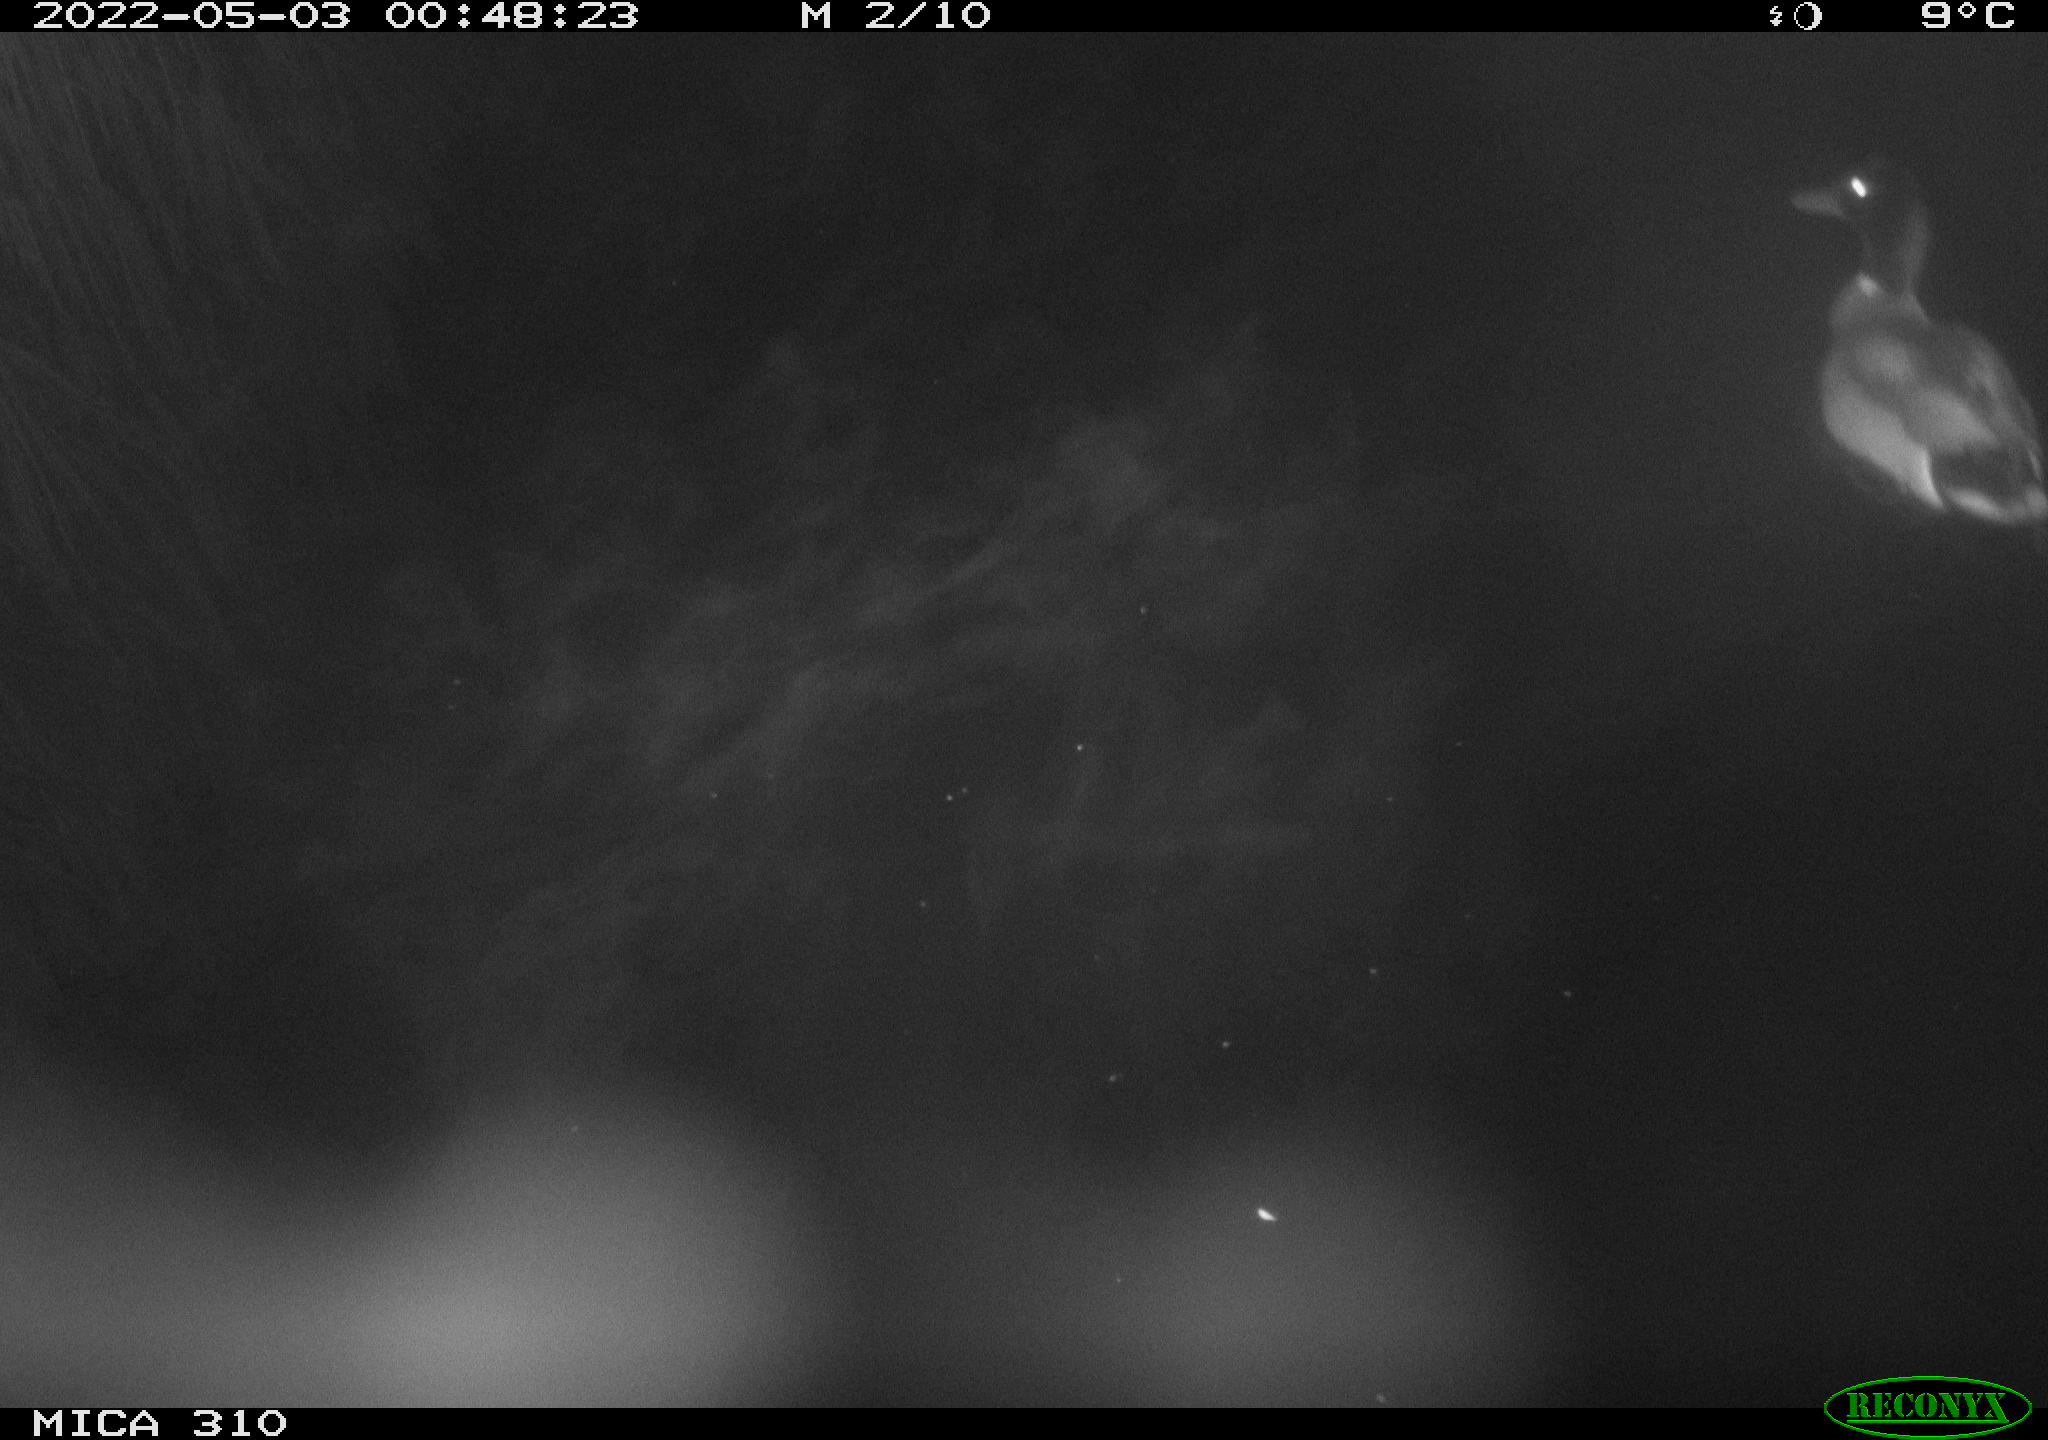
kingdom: Animalia
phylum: Chordata
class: Aves
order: Anseriformes
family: Anatidae
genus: Anas
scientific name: Anas platyrhynchos
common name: Mallard
